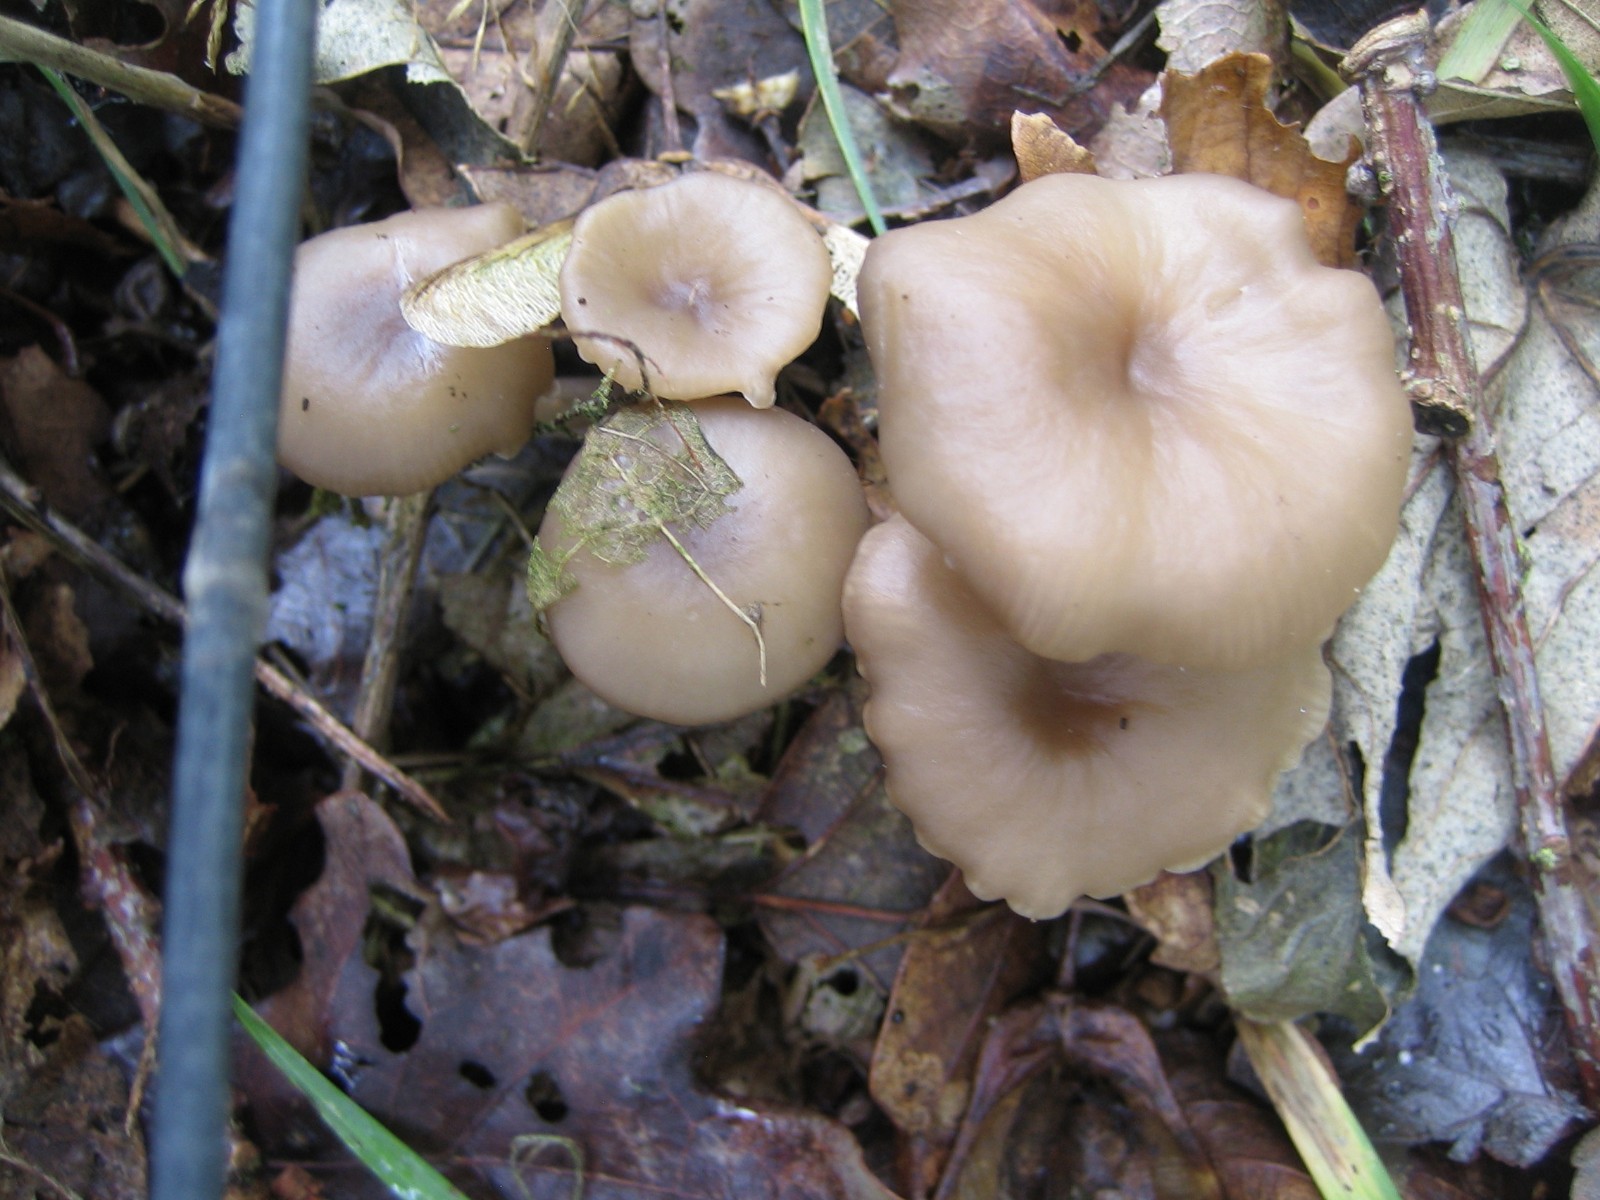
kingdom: Fungi
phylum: Basidiomycota
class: Agaricomycetes
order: Agaricales
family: Tricholomataceae
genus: Clitocybe
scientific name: Clitocybe
